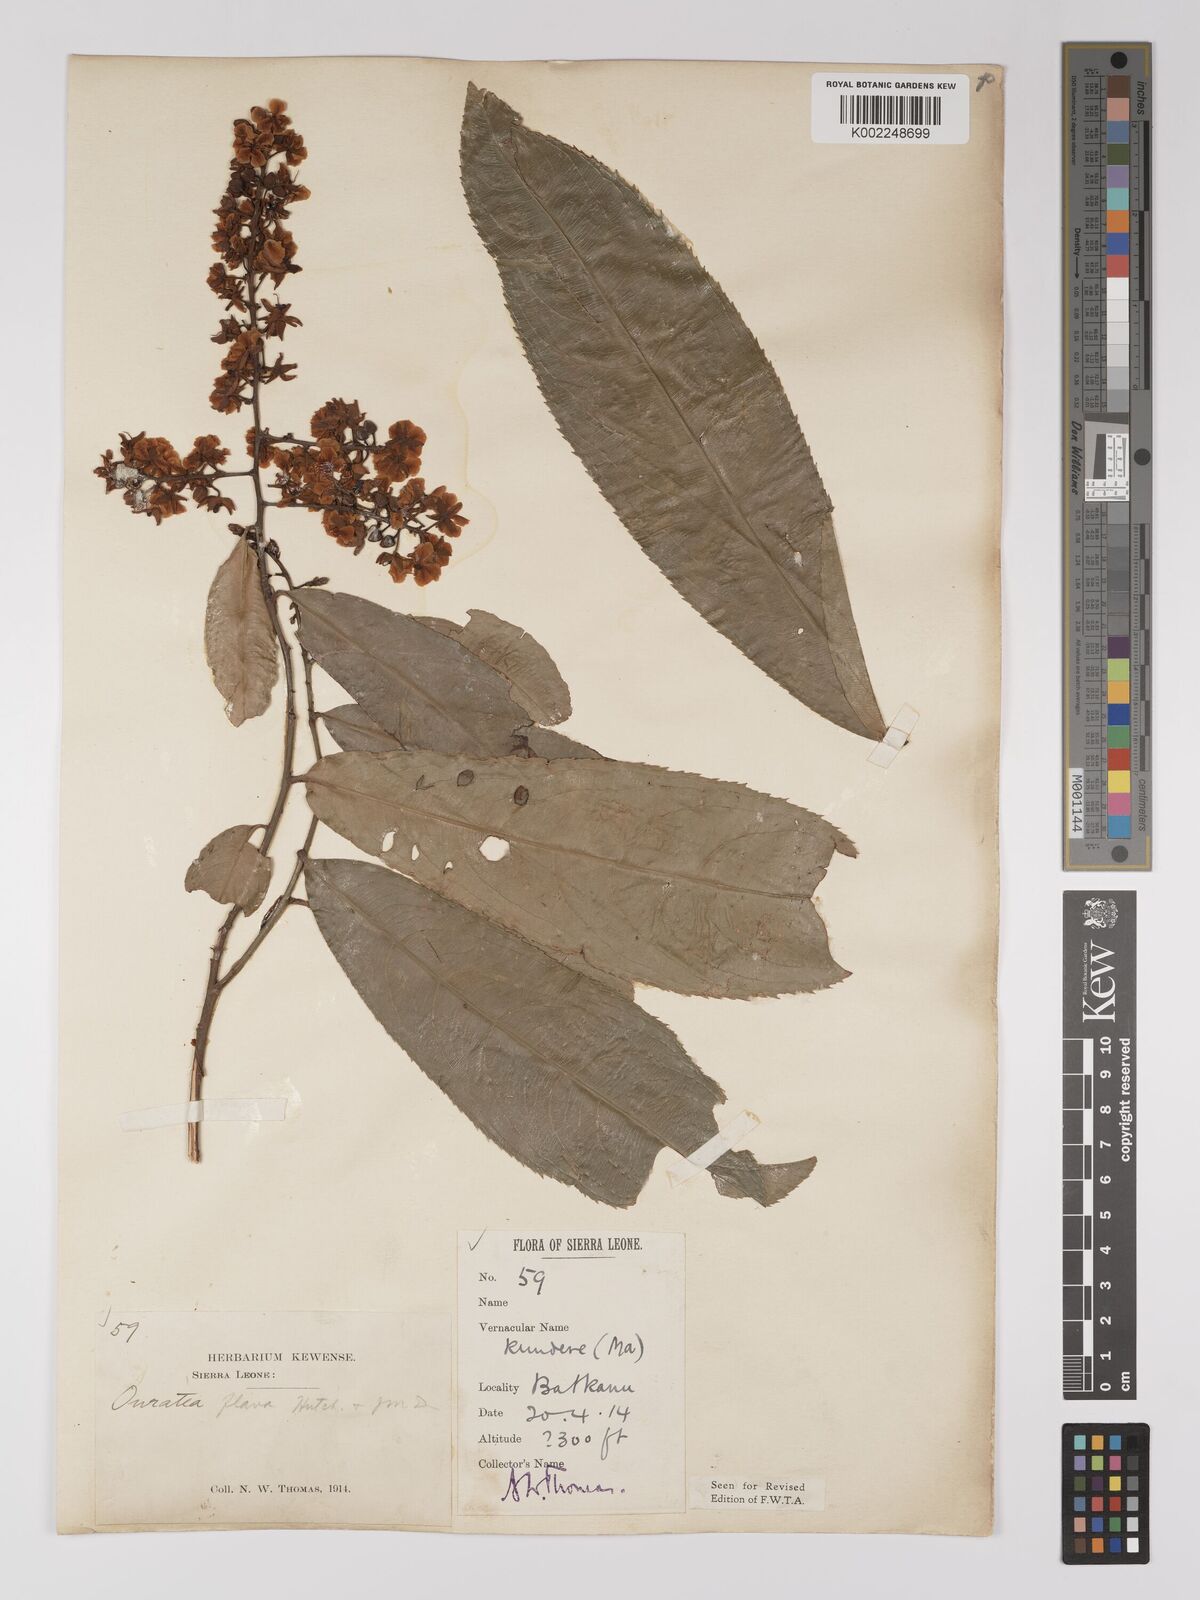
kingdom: Plantae
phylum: Tracheophyta
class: Magnoliopsida
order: Malpighiales
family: Ochnaceae
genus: Campylospermum
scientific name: Campylospermum flavum
